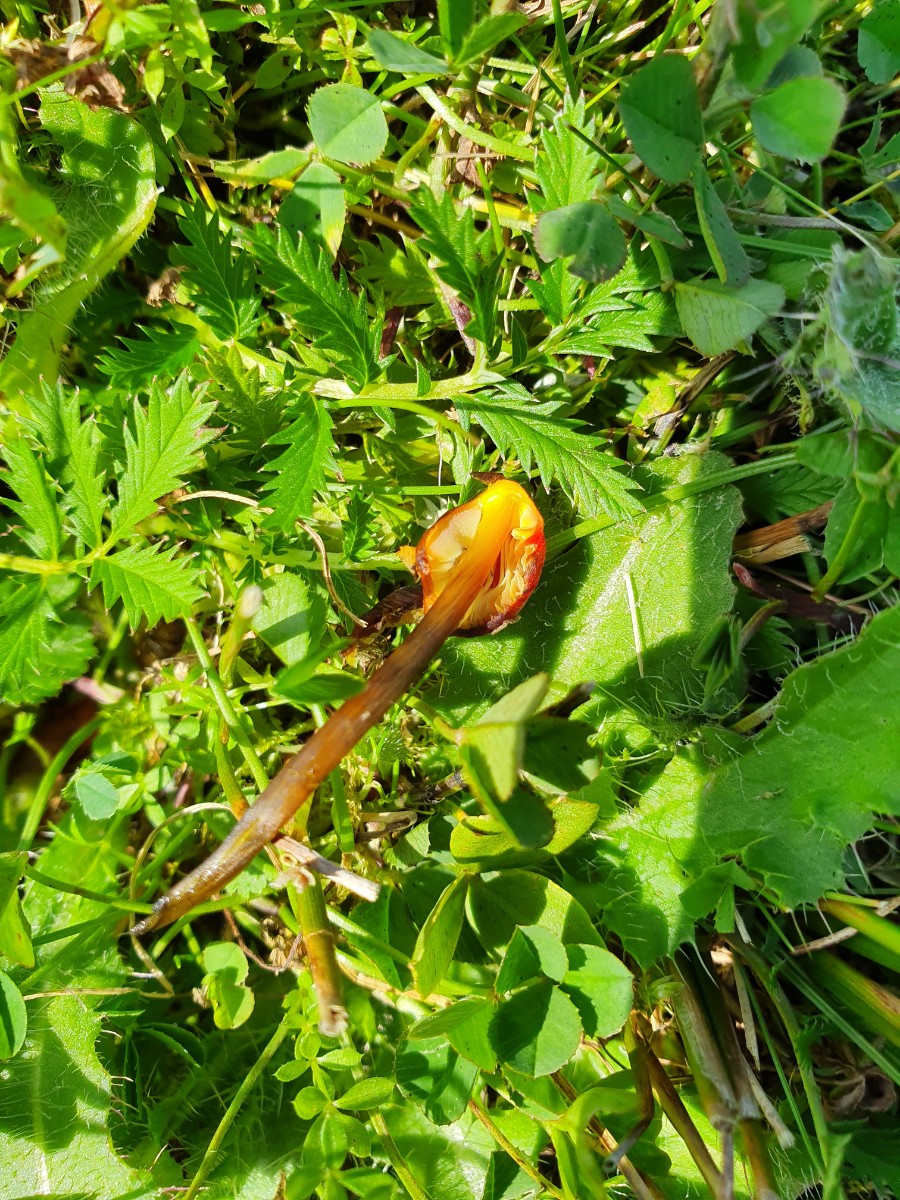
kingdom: Fungi
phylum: Basidiomycota
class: Agaricomycetes
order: Agaricales
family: Hygrophoraceae
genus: Hygrocybe
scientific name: Hygrocybe conica
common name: kegle-vokshat
